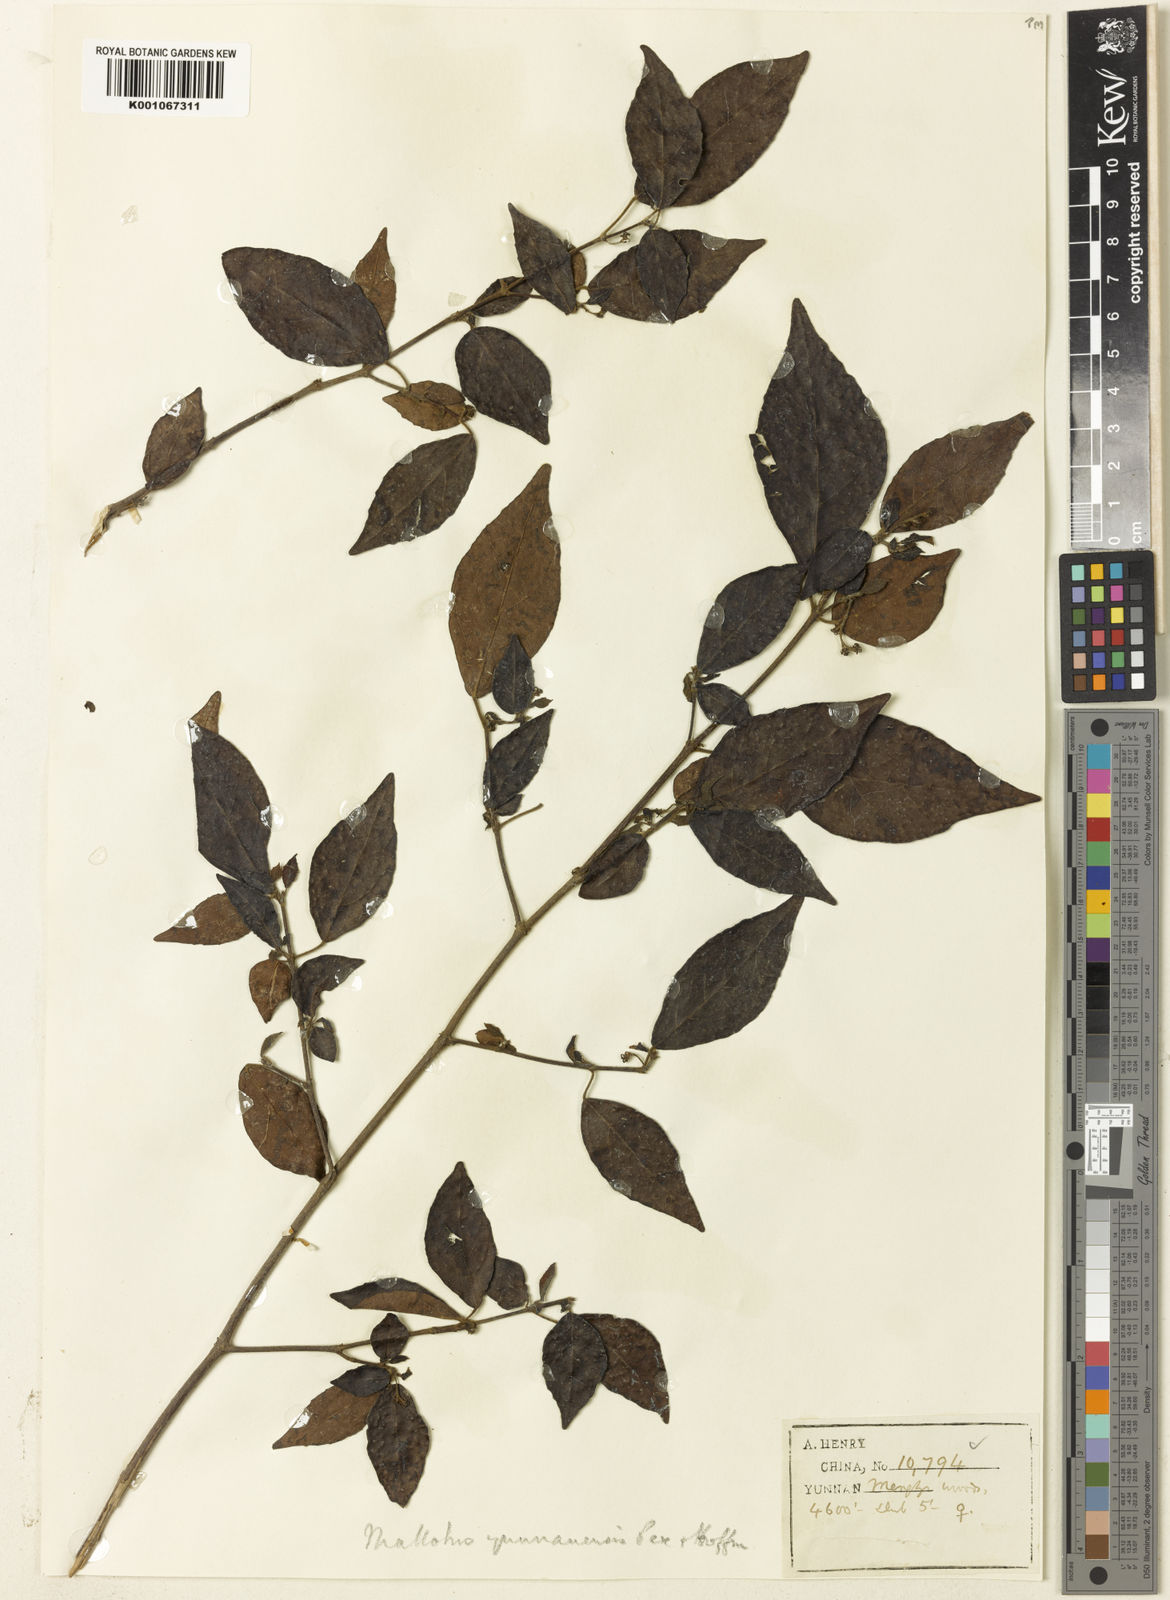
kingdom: Plantae
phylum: Tracheophyta
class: Magnoliopsida
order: Malpighiales
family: Euphorbiaceae
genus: Mallotus
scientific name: Mallotus yunnanensis
